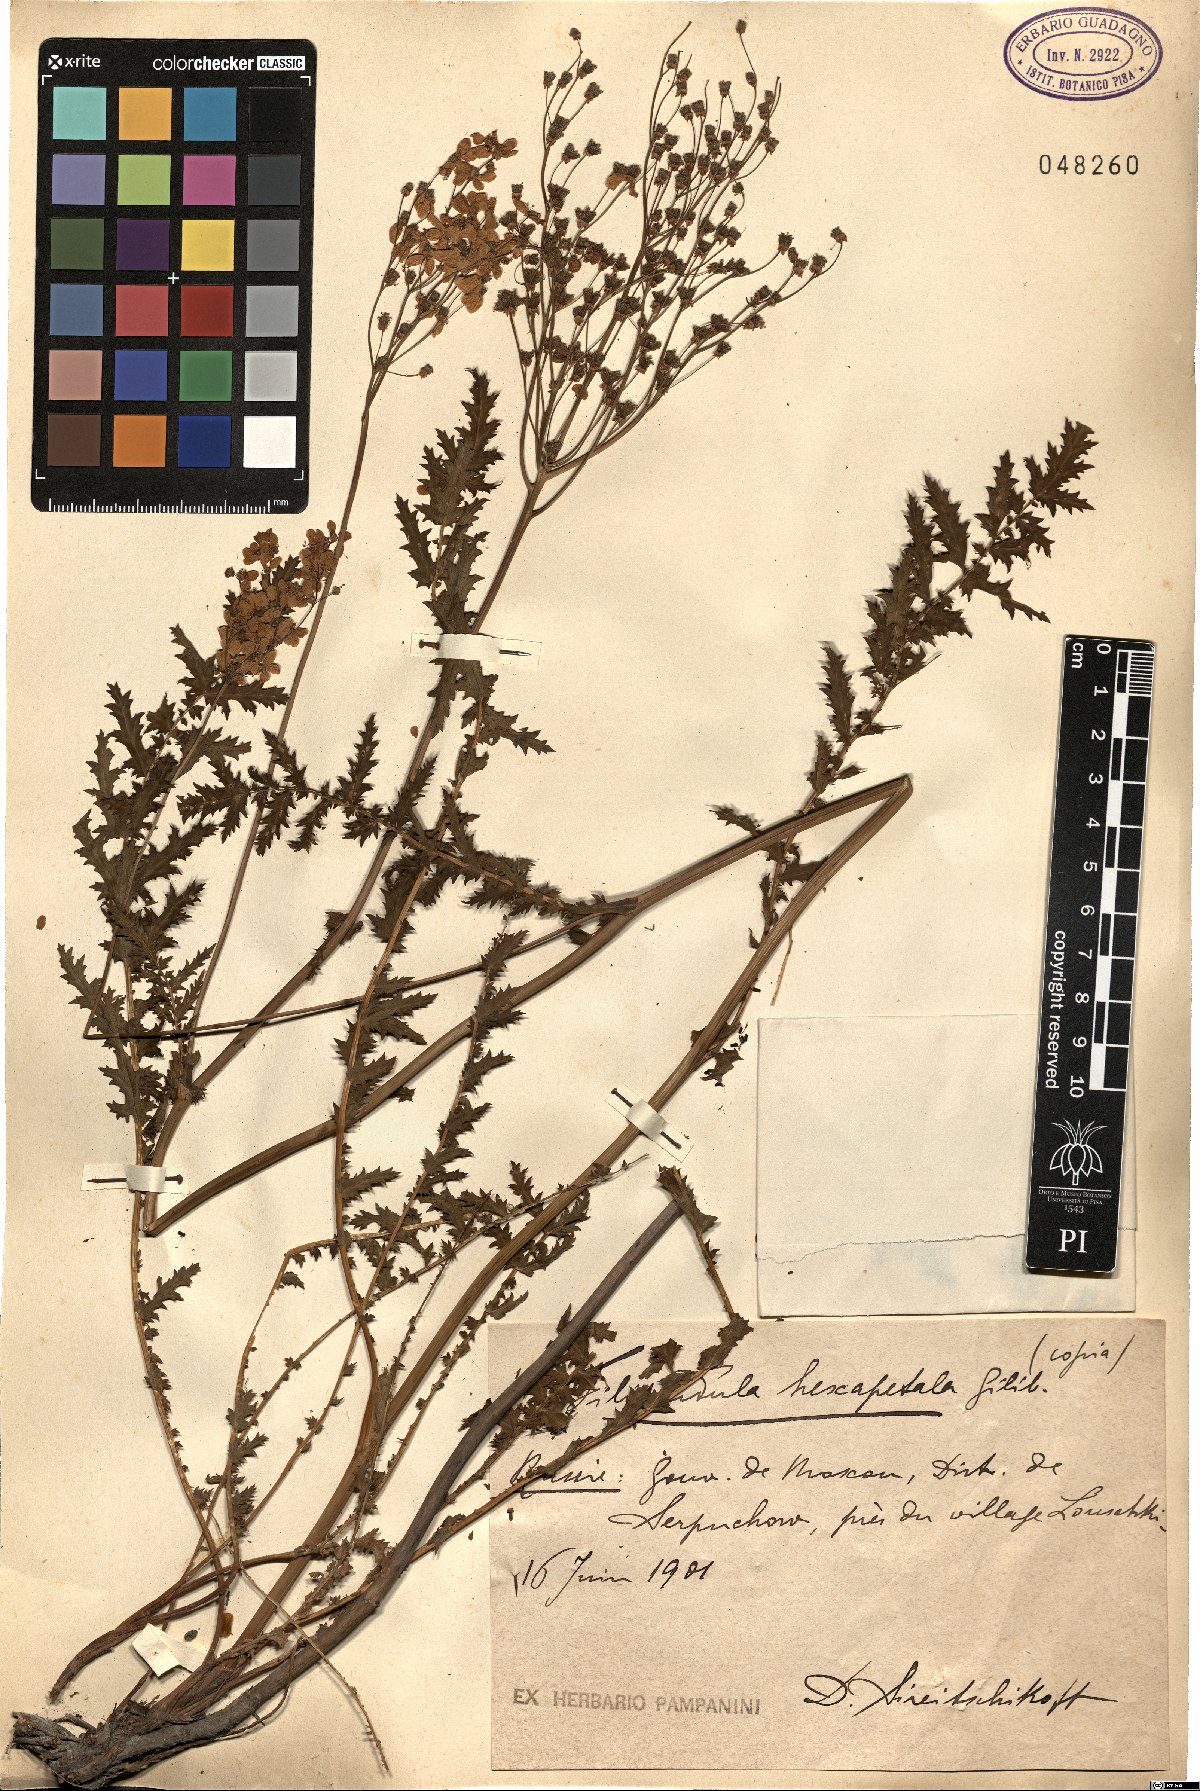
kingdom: Plantae
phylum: Tracheophyta
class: Magnoliopsida
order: Rosales
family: Rosaceae
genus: Filipendula
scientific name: Filipendula vulgaris
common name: Dropwort
